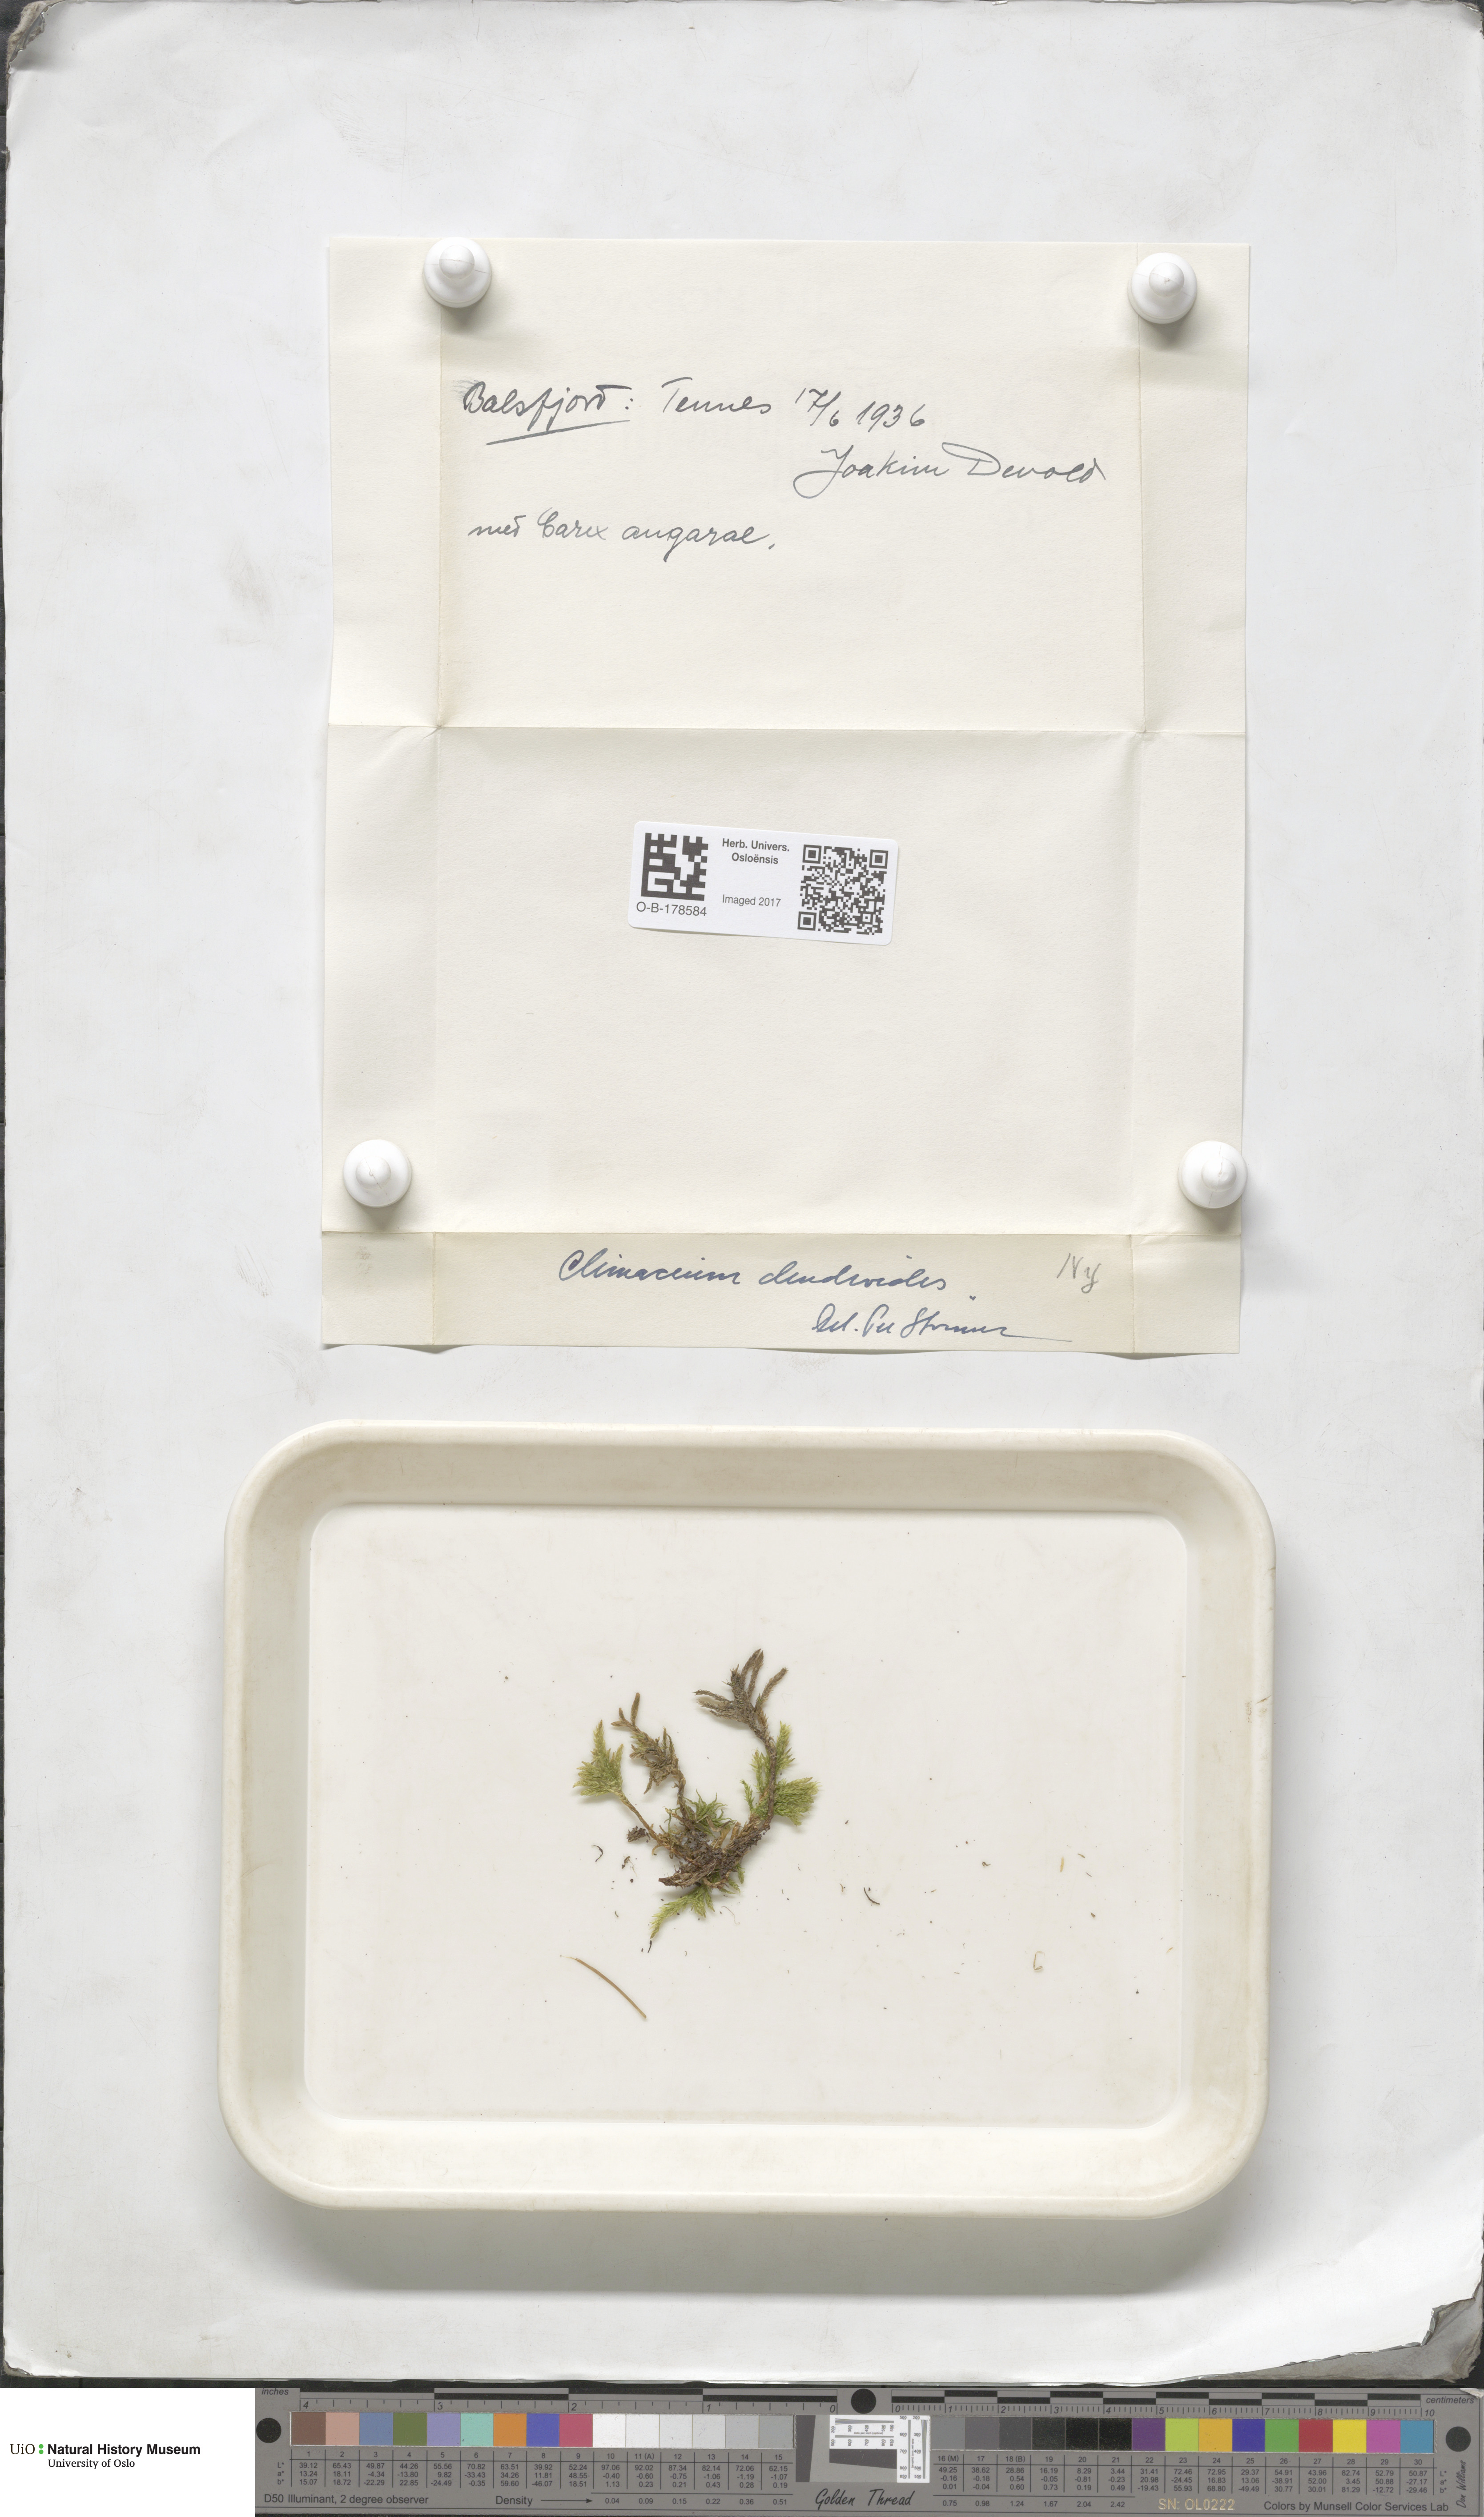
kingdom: Plantae
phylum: Bryophyta
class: Bryopsida
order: Hypnales
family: Climaciaceae
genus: Climacium
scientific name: Climacium dendroides
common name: Northern tree moss
